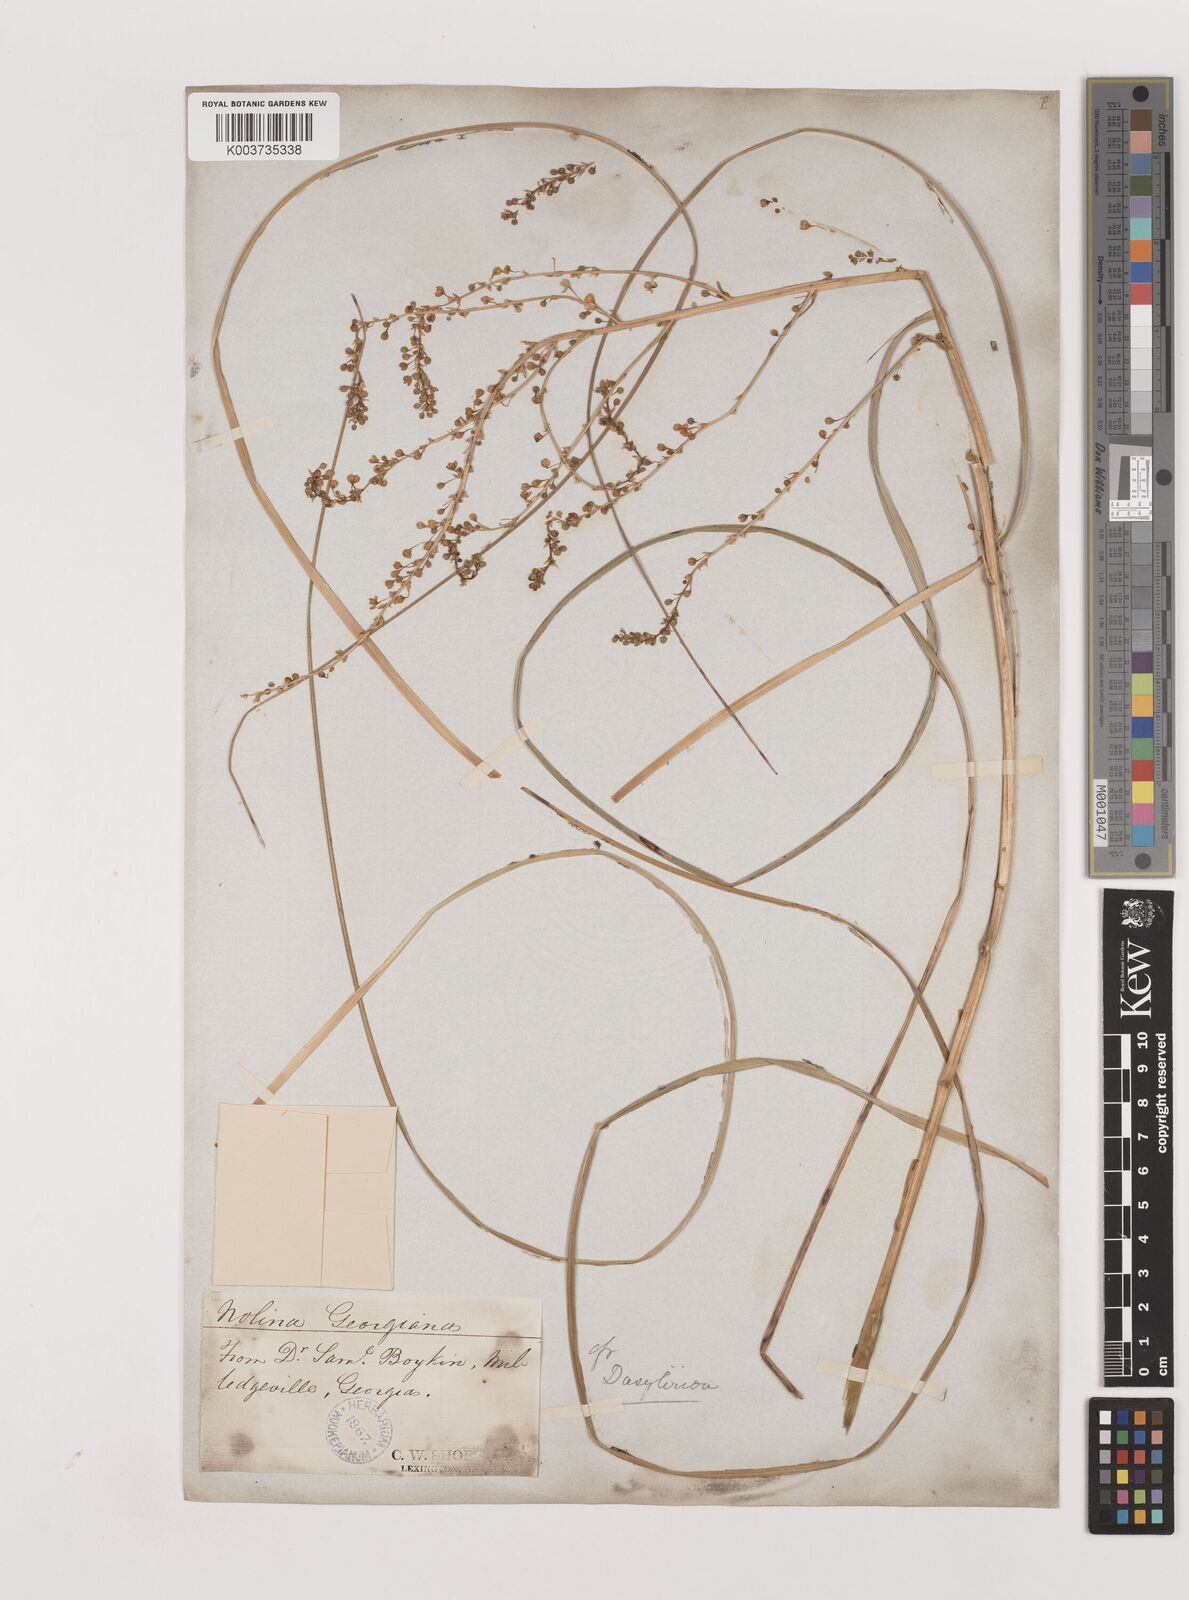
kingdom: Plantae
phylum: Tracheophyta
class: Liliopsida
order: Asparagales
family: Asparagaceae
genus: Nolina
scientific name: Nolina georgiana
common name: Georgia bear-grass
